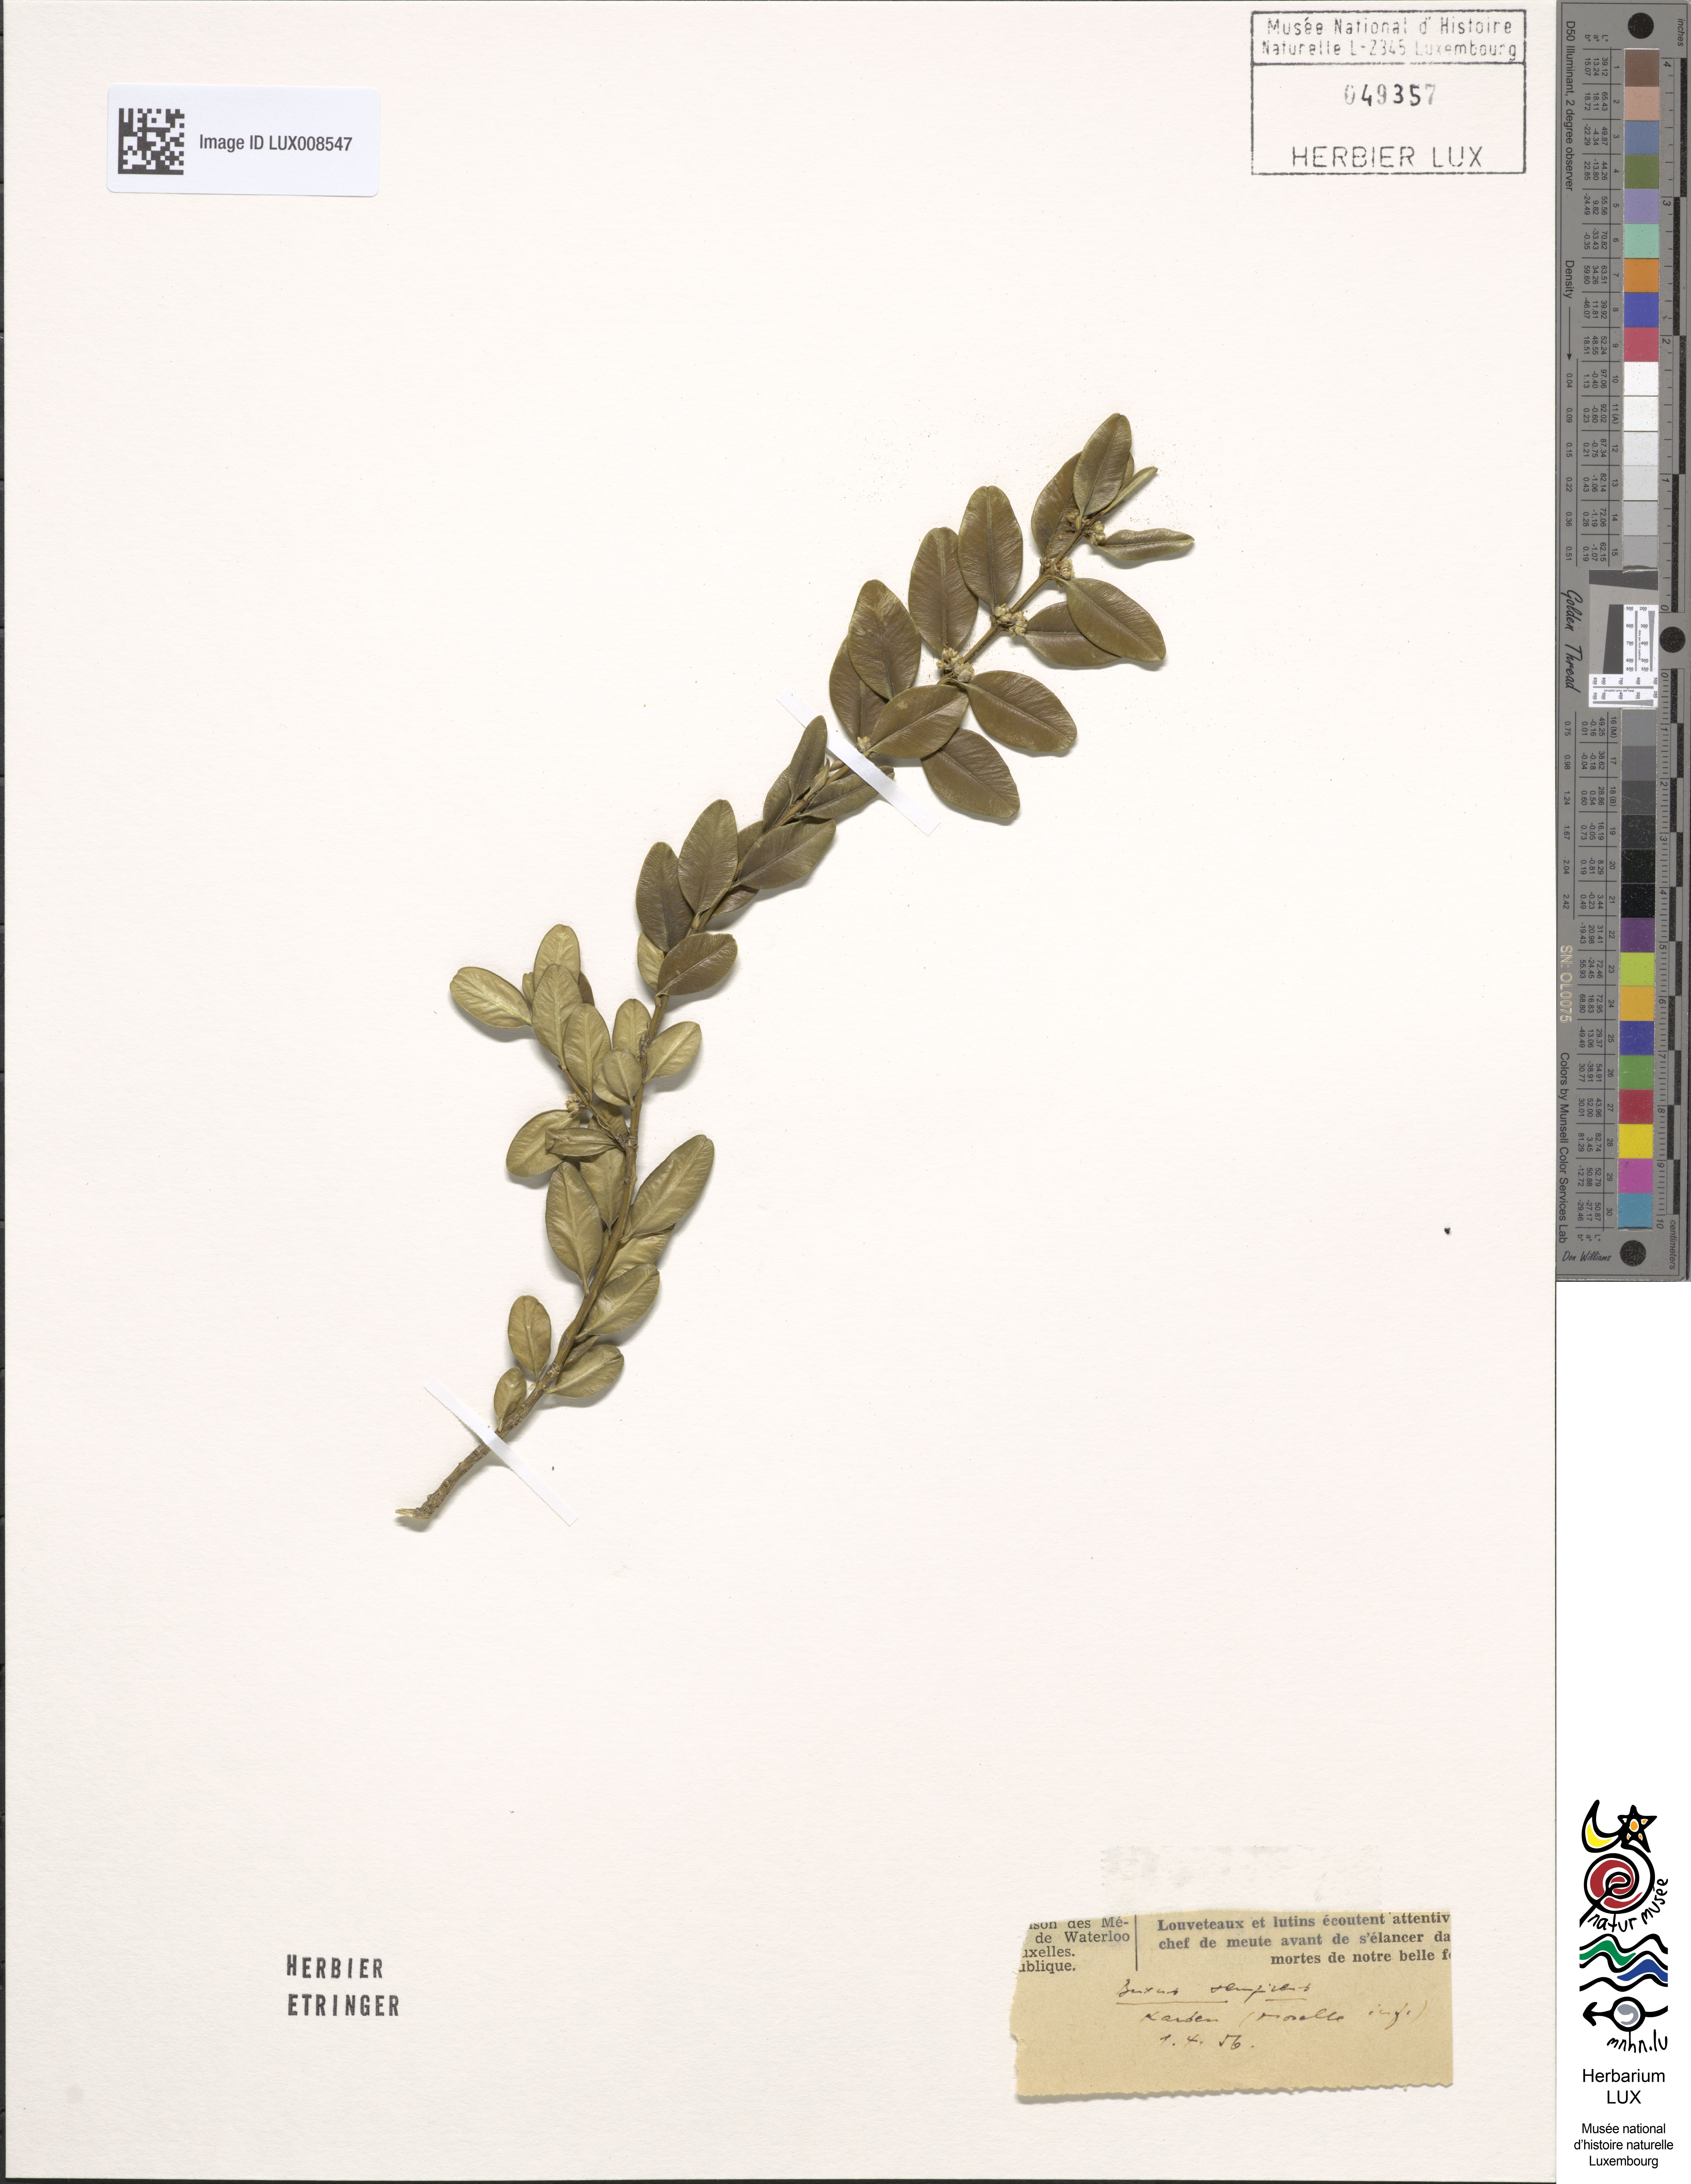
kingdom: Plantae
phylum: Tracheophyta
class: Magnoliopsida
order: Buxales
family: Buxaceae
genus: Buxus
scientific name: Buxus sempervirens
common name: Box
